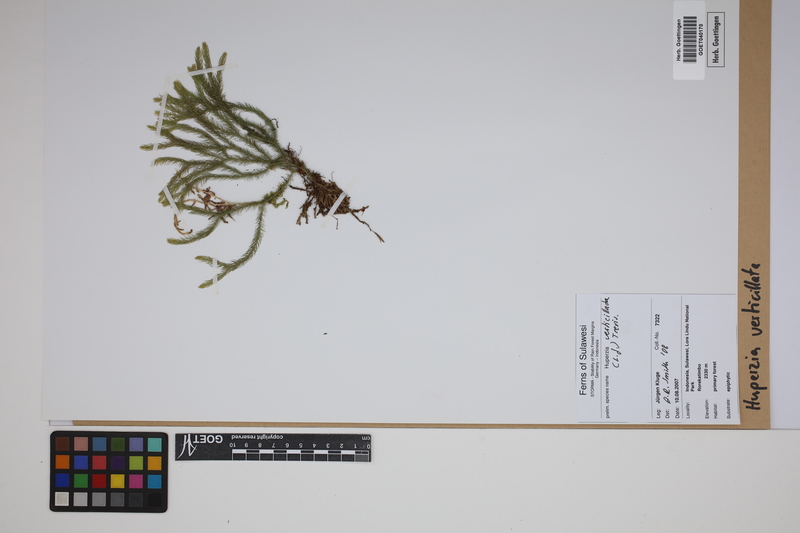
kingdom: Plantae
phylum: Tracheophyta
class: Lycopodiopsida
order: Lycopodiales
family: Lycopodiaceae
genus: Phlegmariurus
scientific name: Phlegmariurus verticillatus
